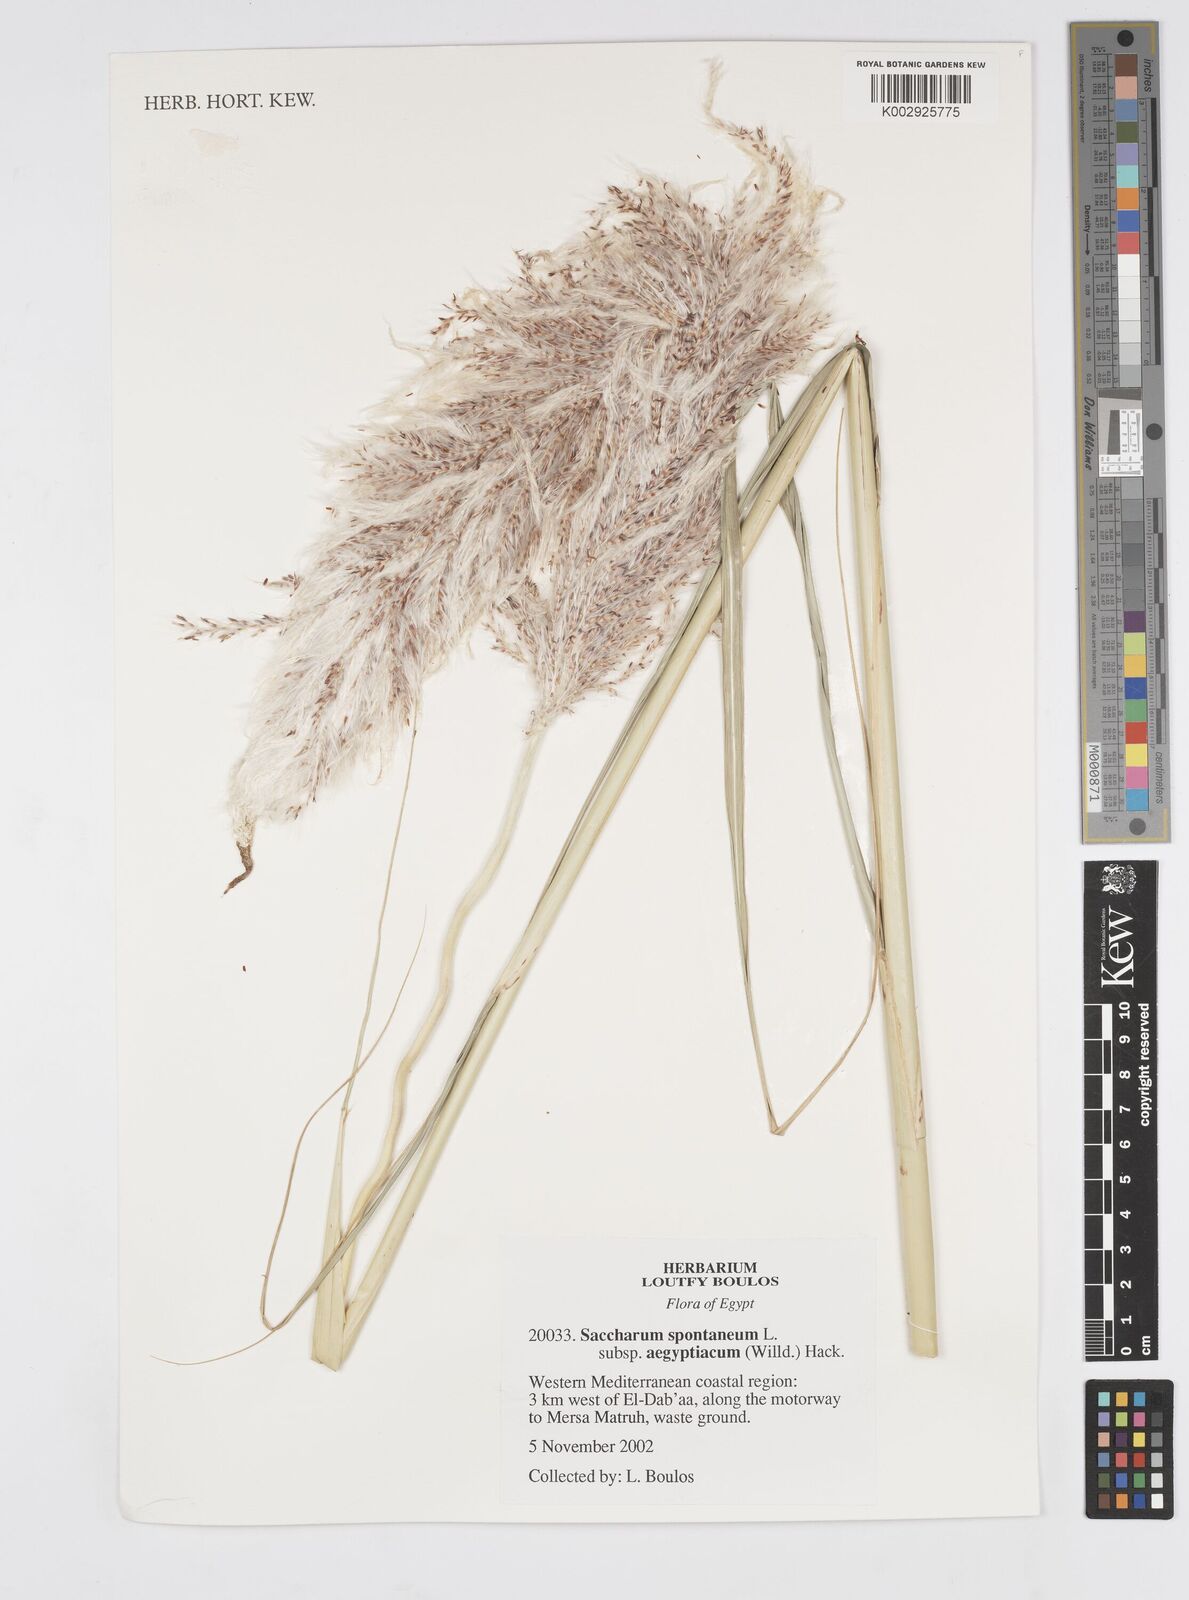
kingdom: Plantae
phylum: Tracheophyta
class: Liliopsida
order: Poales
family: Poaceae
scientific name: Poaceae
